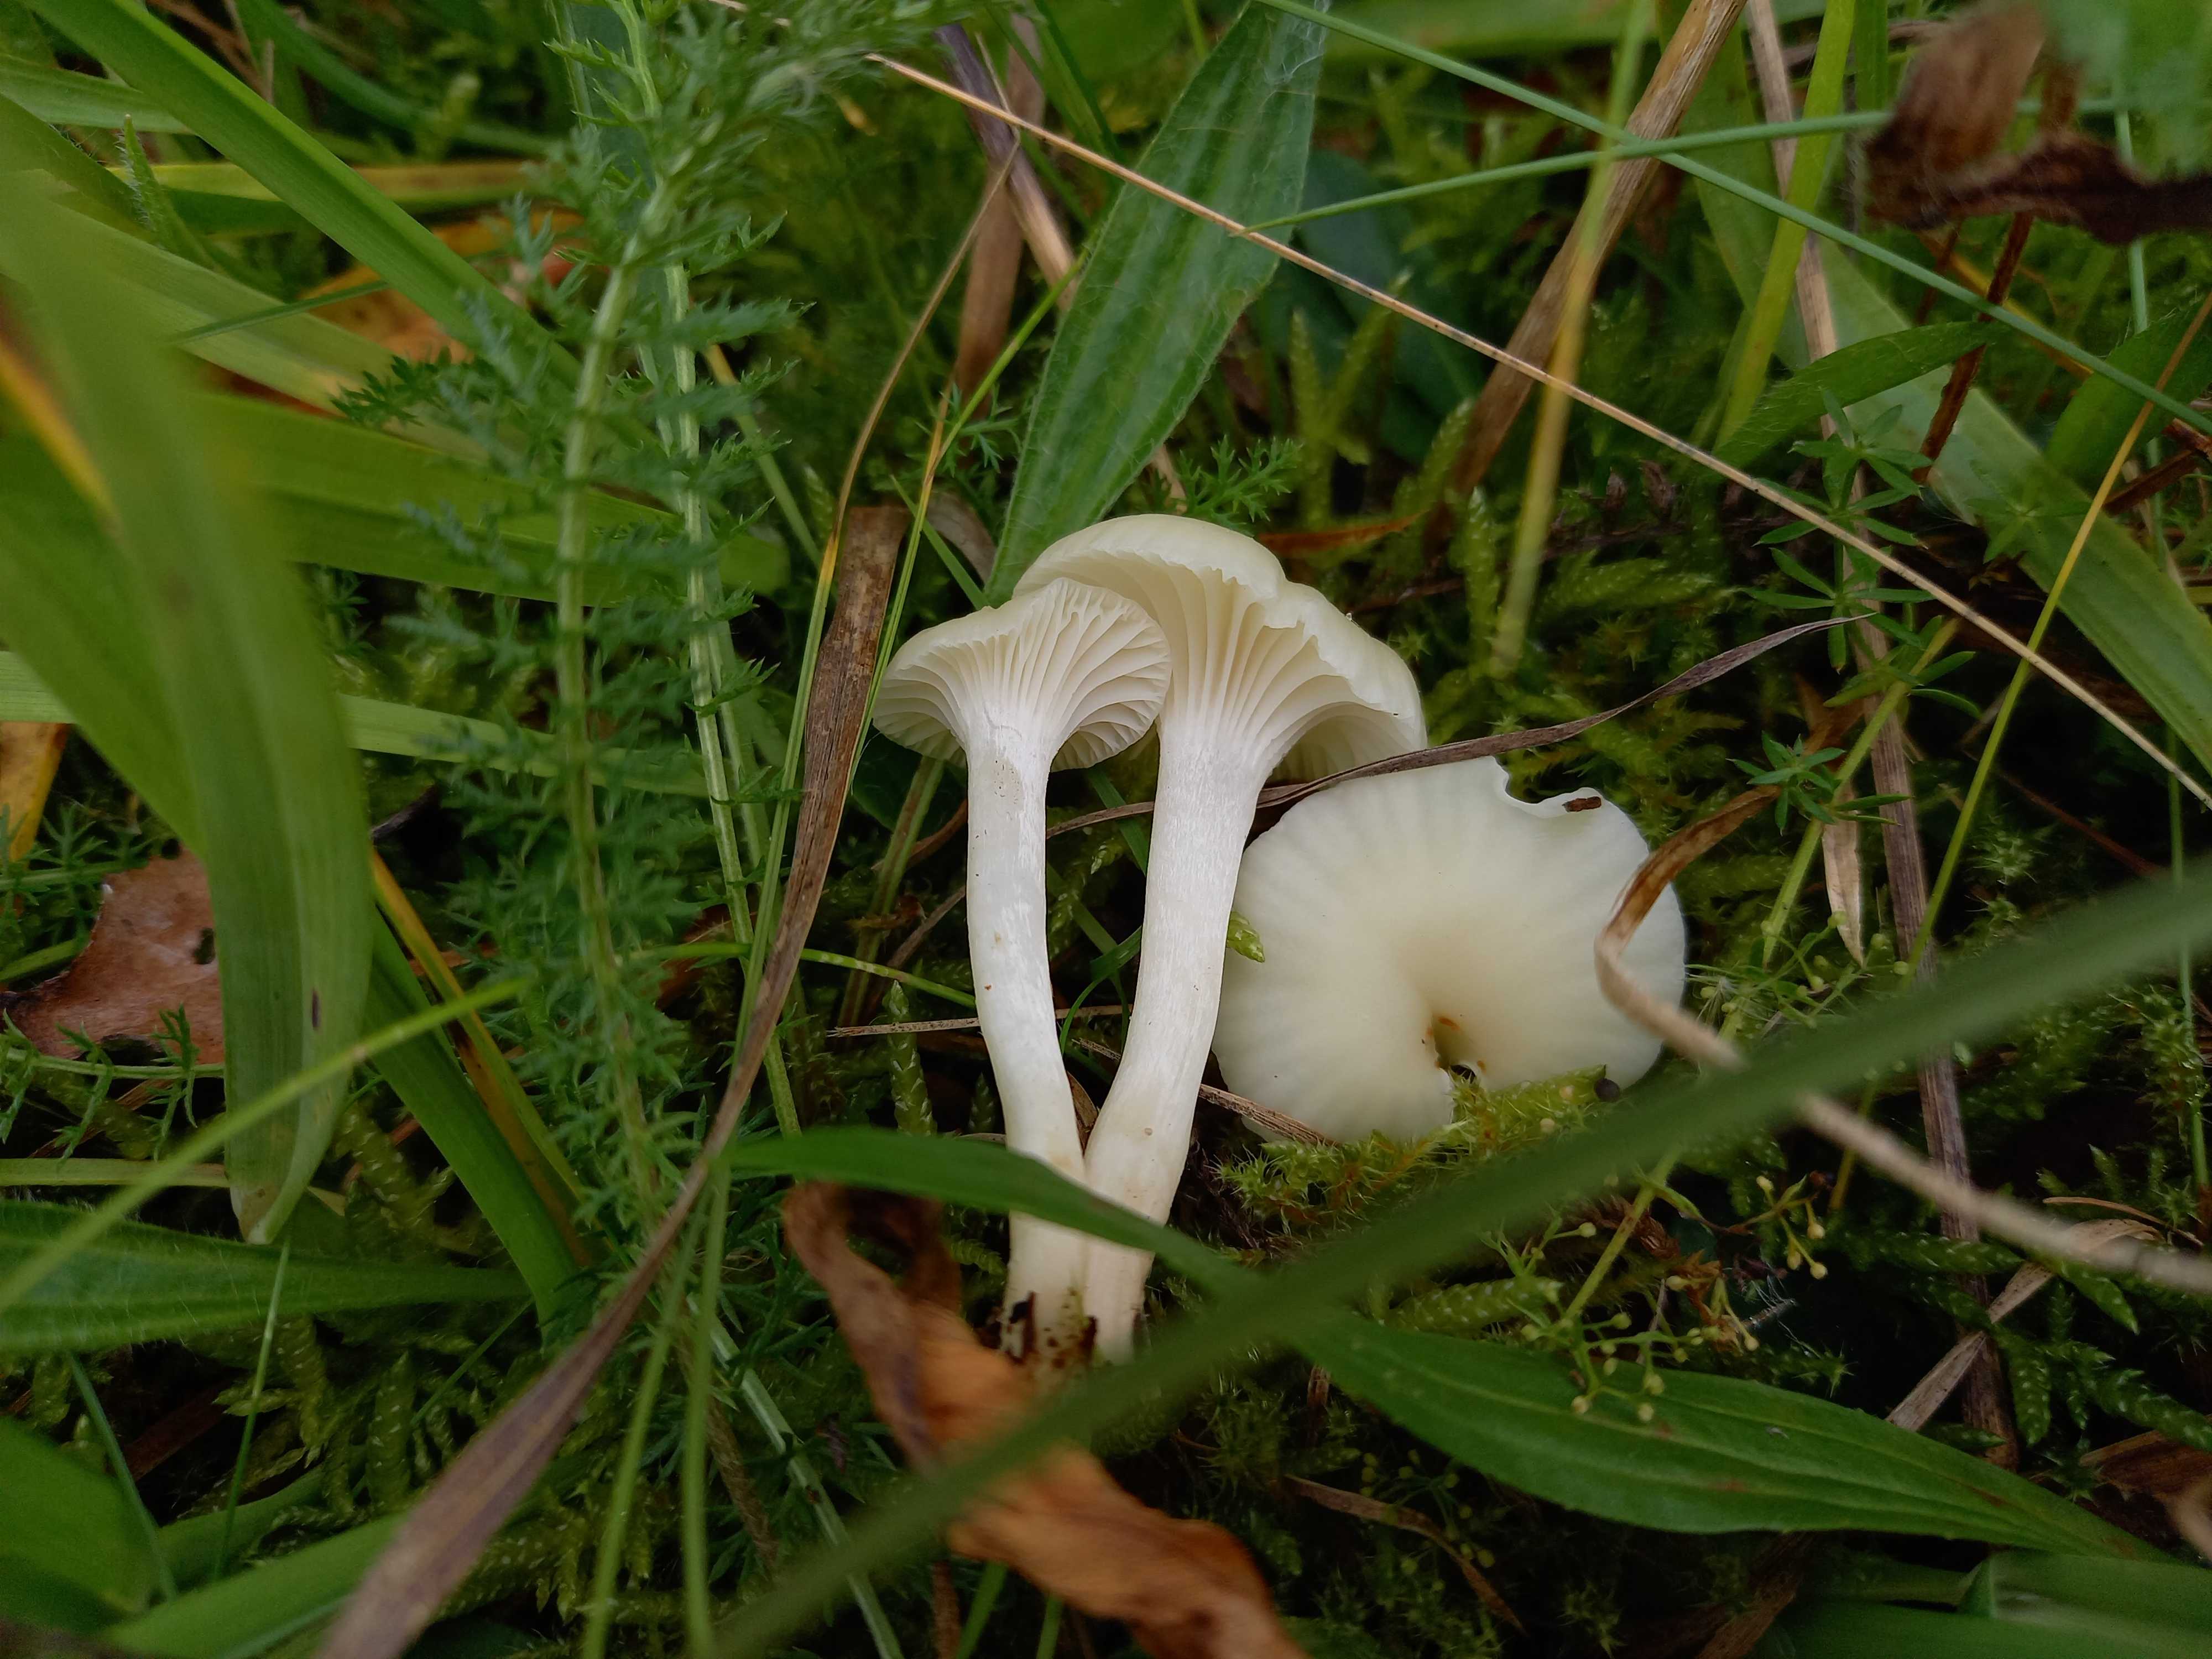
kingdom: Fungi
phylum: Basidiomycota
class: Agaricomycetes
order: Agaricales
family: Hygrophoraceae
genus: Cuphophyllus
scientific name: Cuphophyllus
